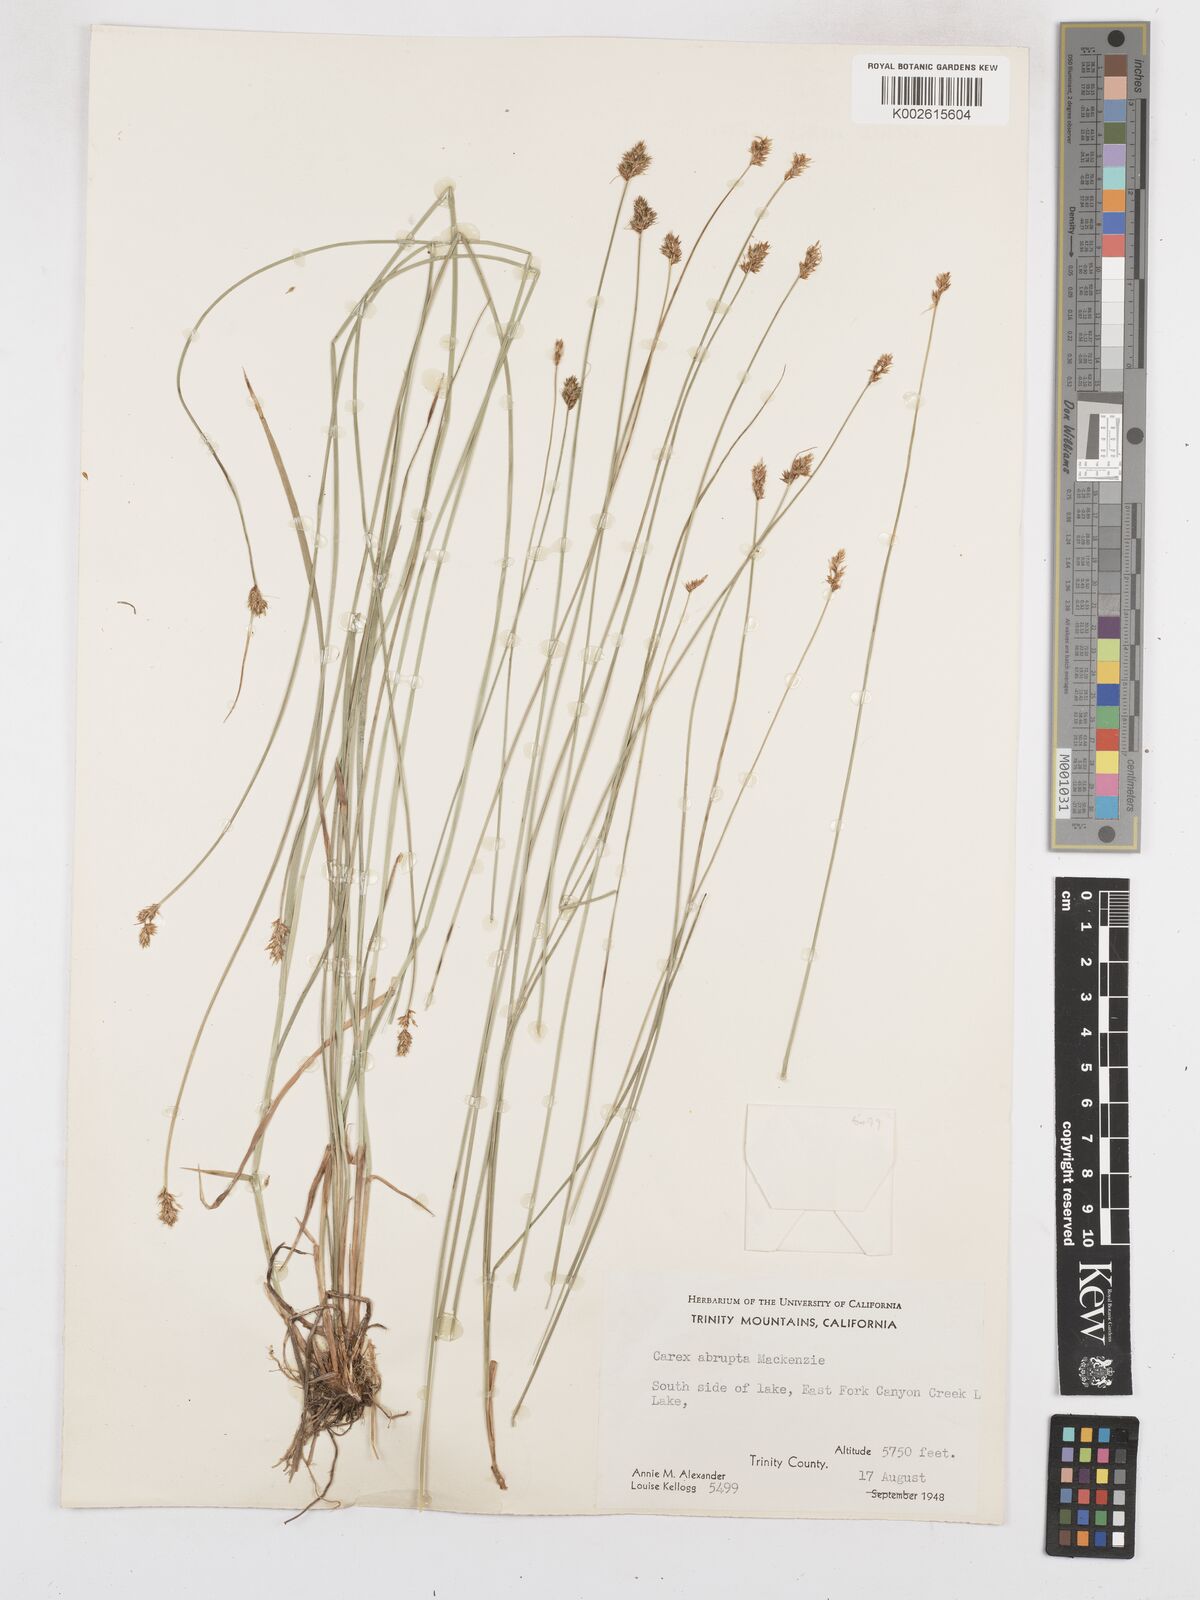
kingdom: Plantae
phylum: Tracheophyta
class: Liliopsida
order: Poales
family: Cyperaceae
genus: Carex
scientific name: Carex abrupta
